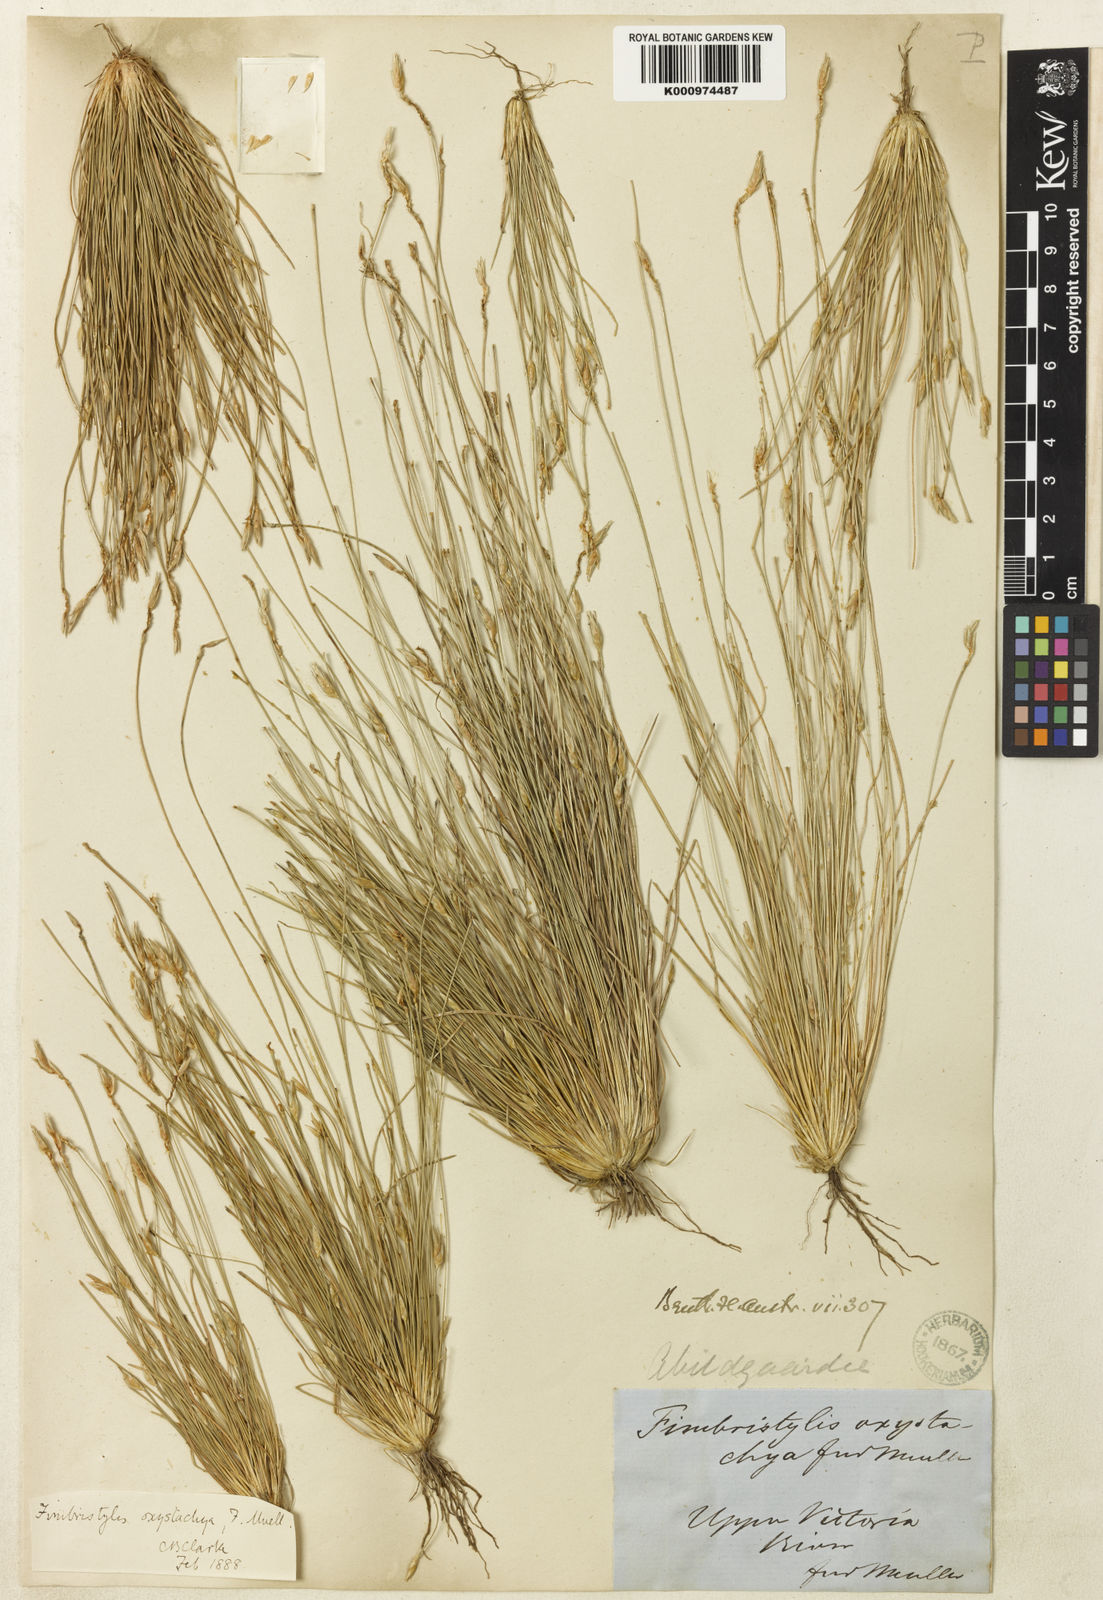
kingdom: Plantae
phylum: Tracheophyta
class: Liliopsida
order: Poales
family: Cyperaceae
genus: Abildgaardia
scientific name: Abildgaardia oxystachya
